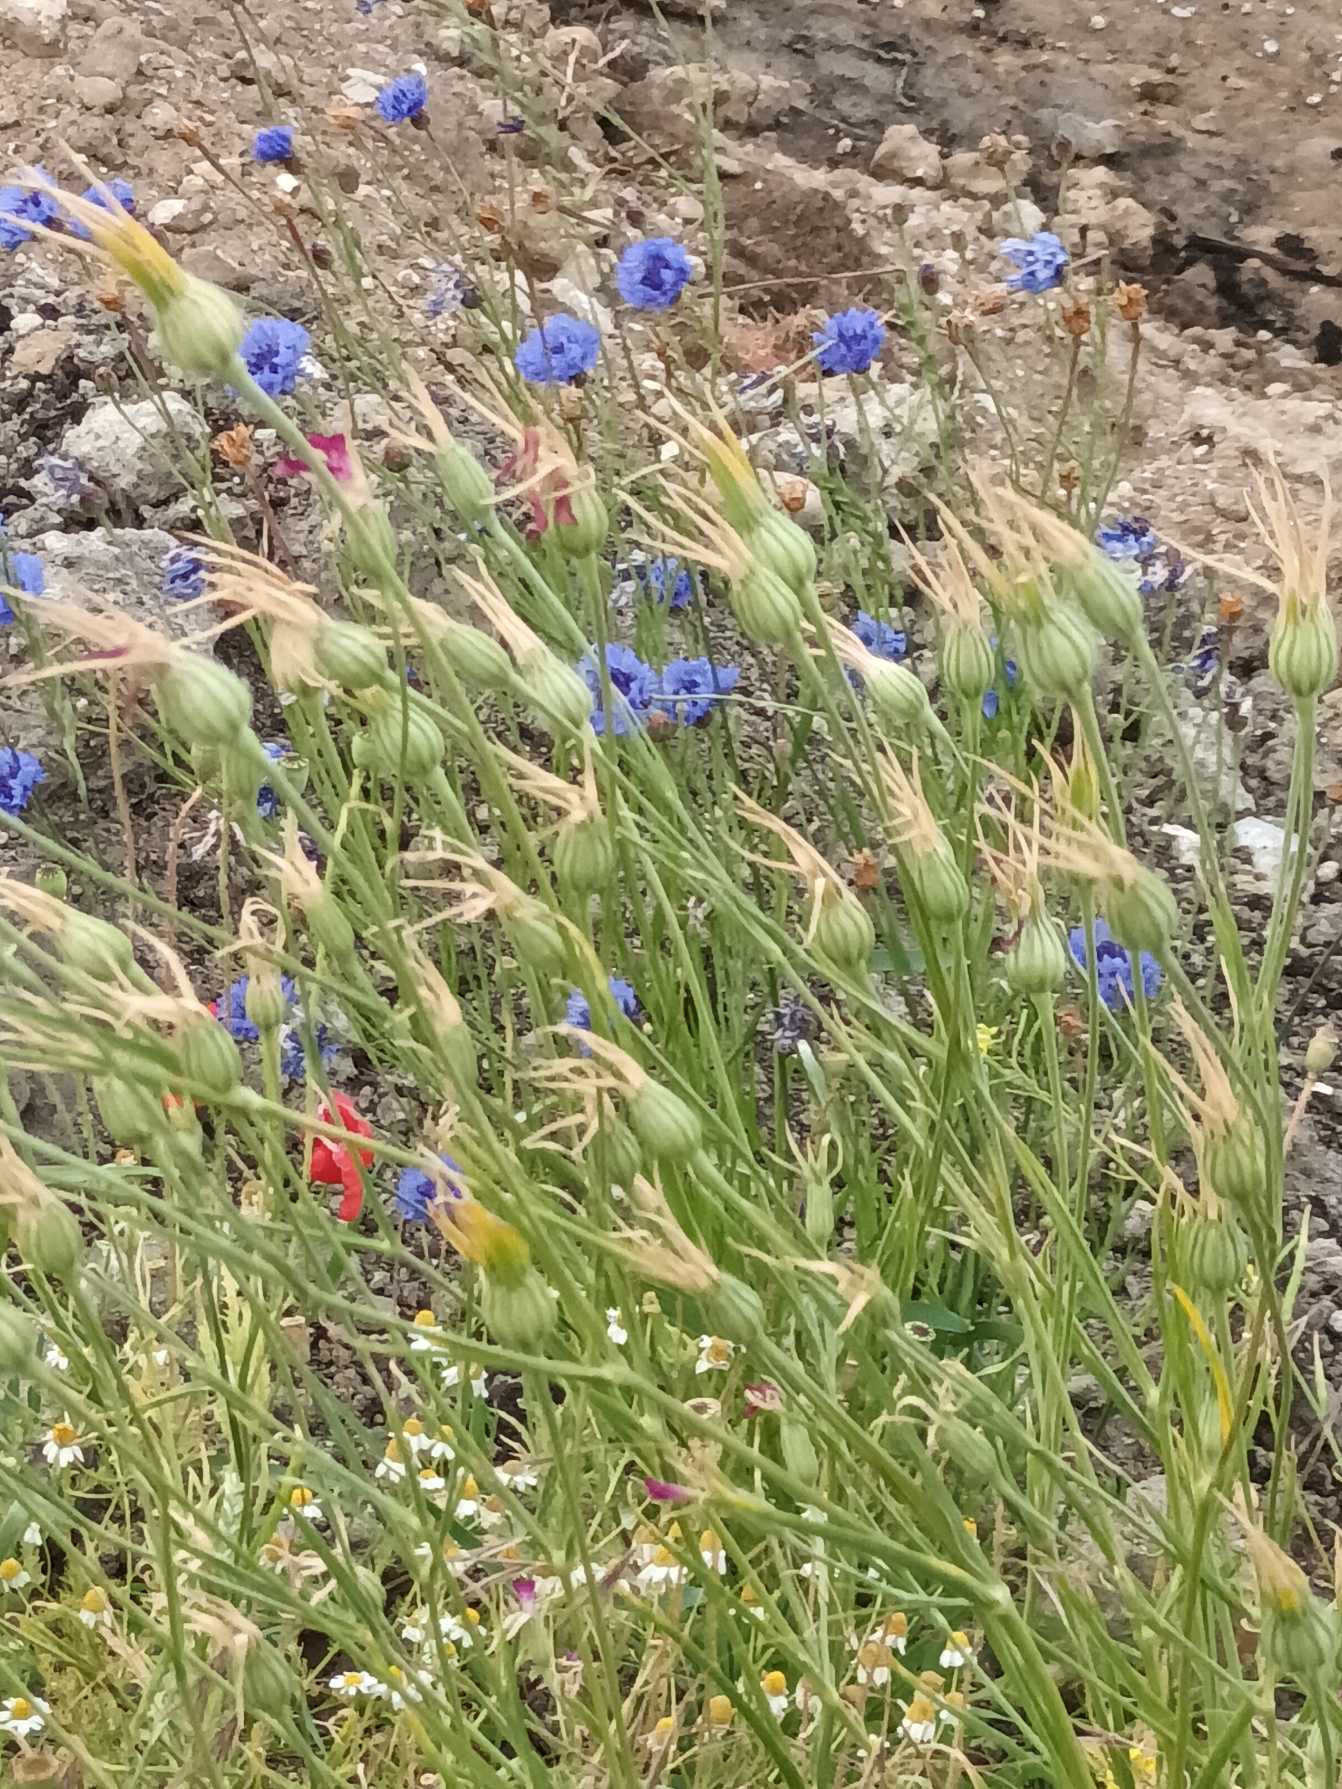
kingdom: Plantae
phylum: Tracheophyta
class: Magnoliopsida
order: Caryophyllales
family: Caryophyllaceae
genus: Agrostemma
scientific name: Agrostemma githago
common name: Klinte
